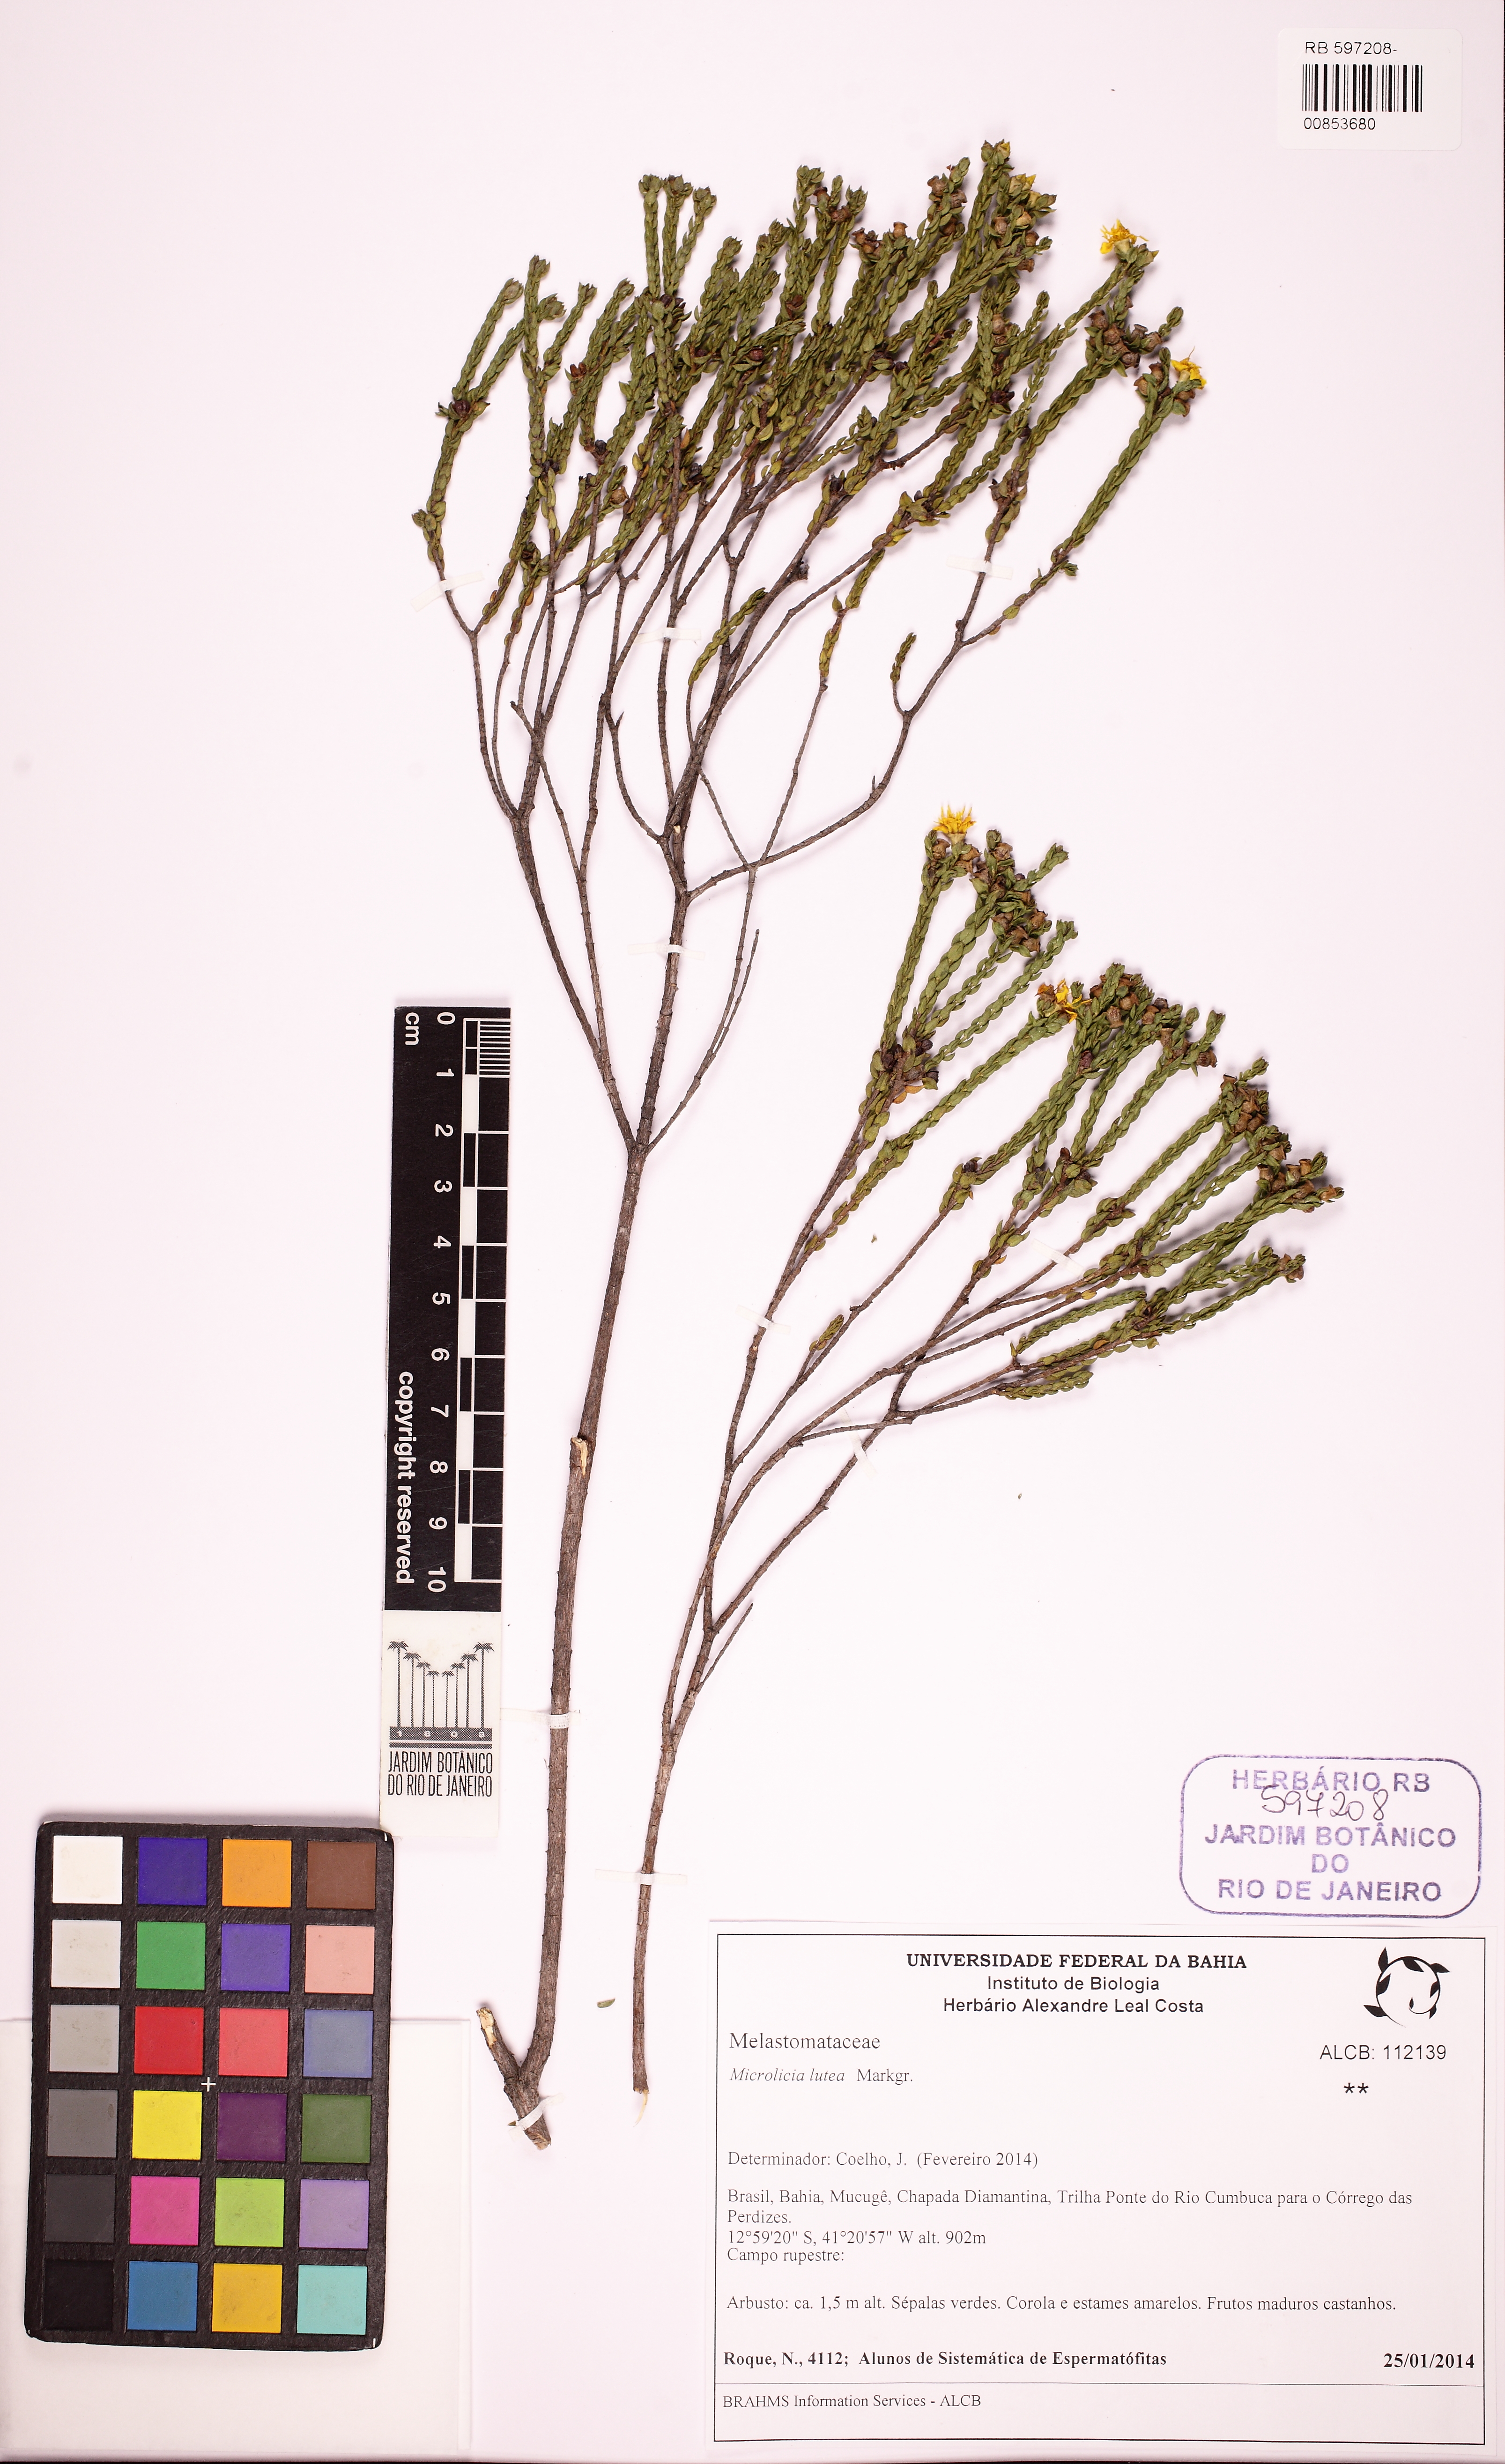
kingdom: Plantae
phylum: Tracheophyta
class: Magnoliopsida
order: Myrtales
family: Melastomataceae
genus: Microlicia
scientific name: Microlicia lutea
